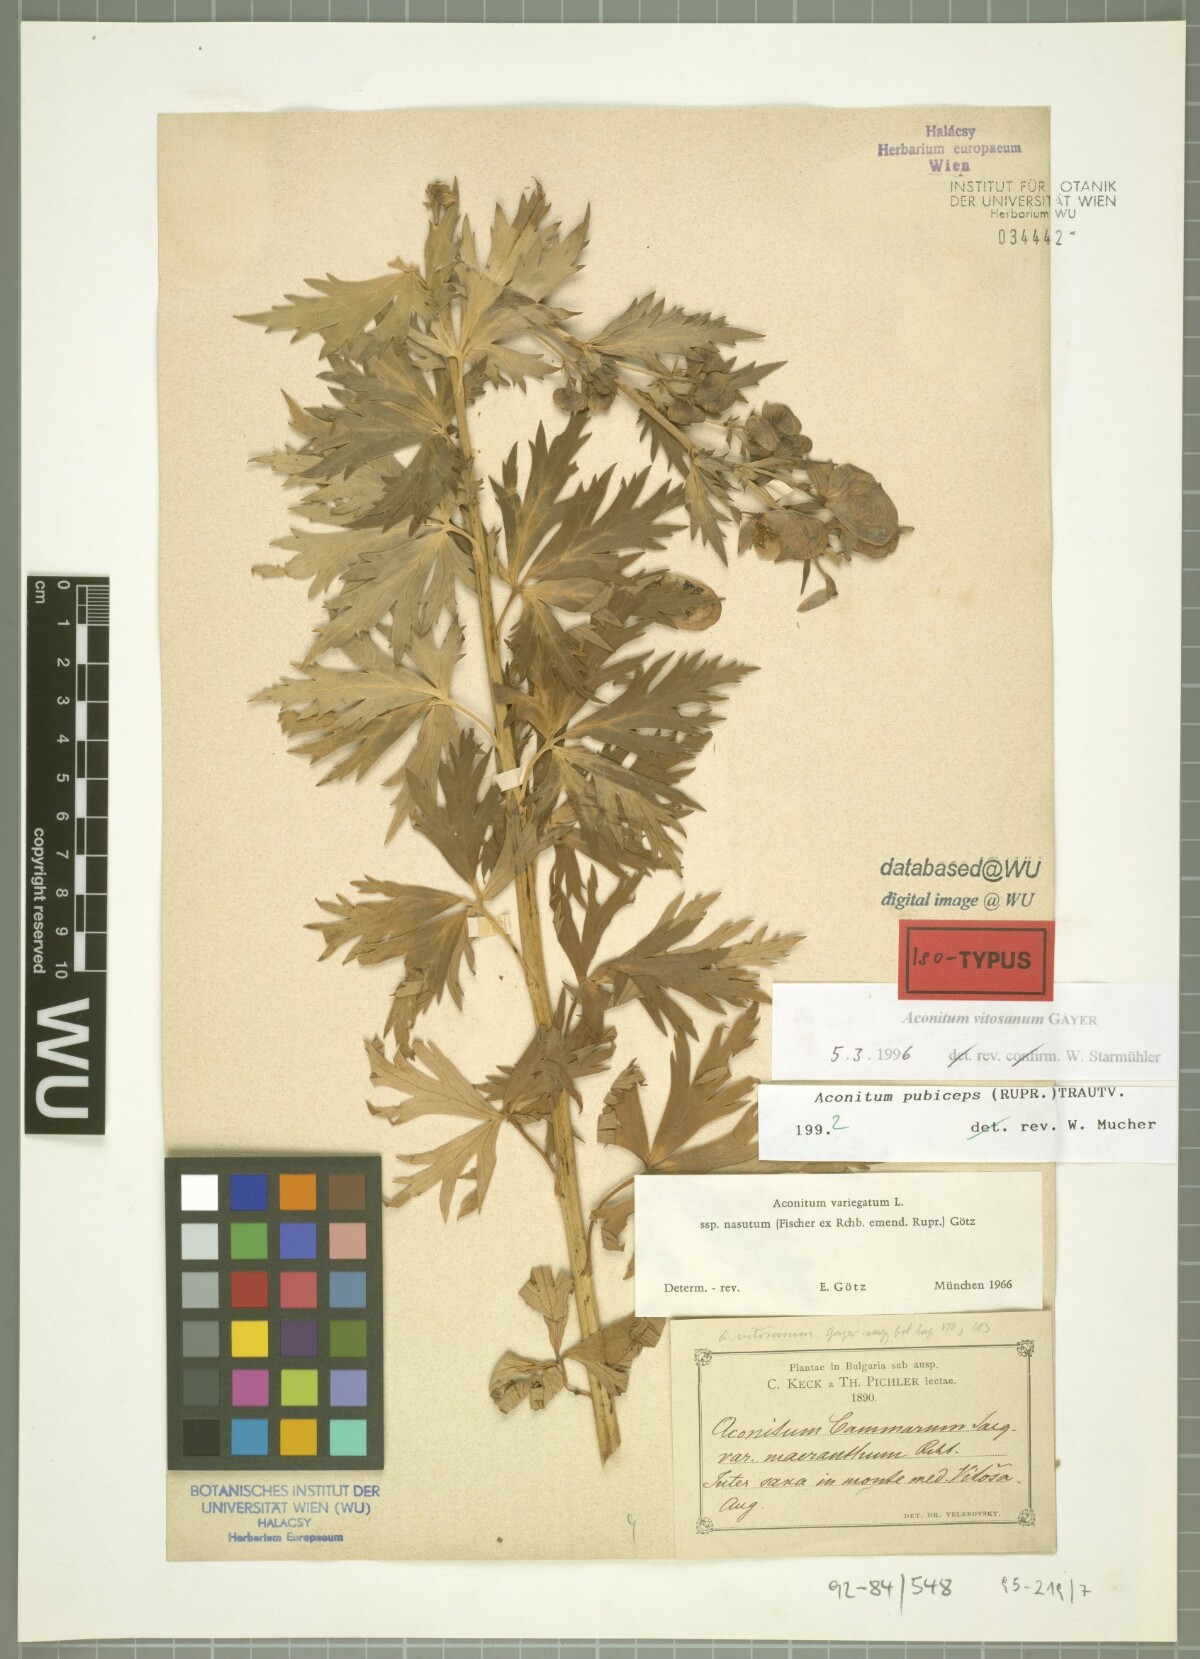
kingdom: Plantae
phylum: Tracheophyta
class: Magnoliopsida
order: Ranunculales
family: Ranunculaceae
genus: Aconitum
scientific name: Aconitum vitosanum
